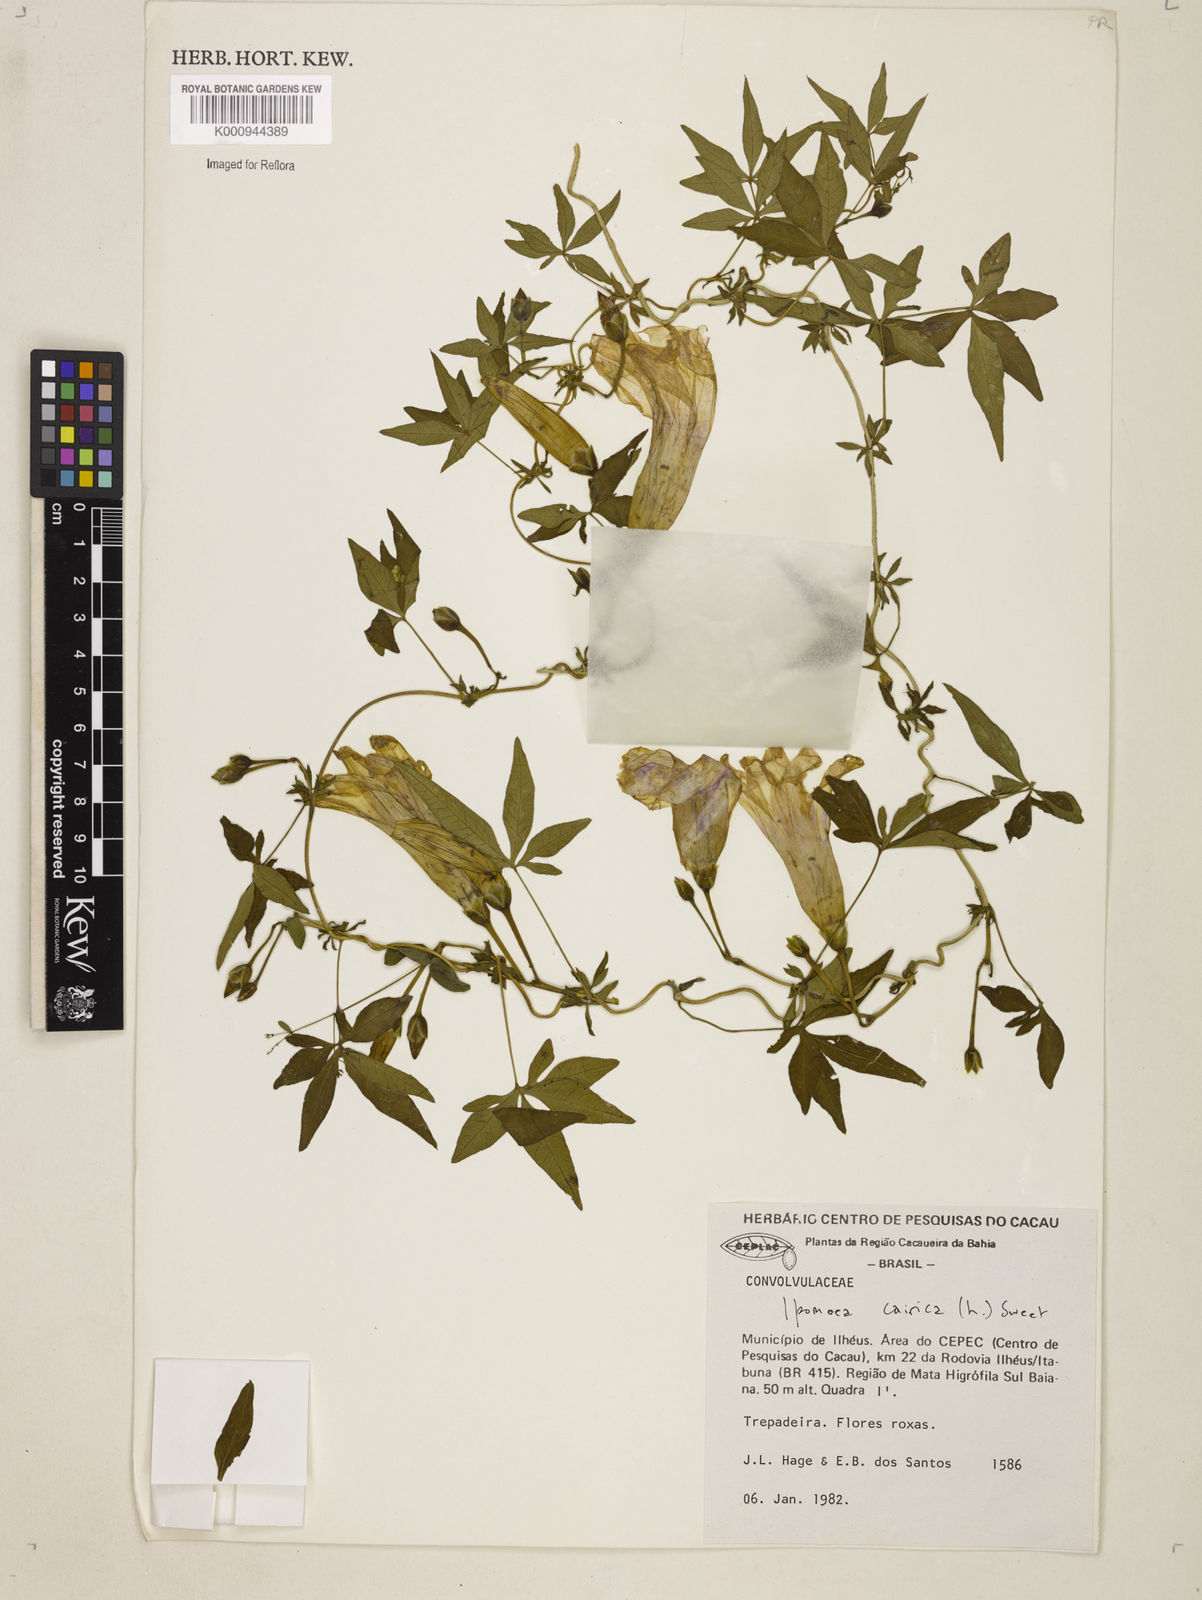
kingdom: Plantae
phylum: Tracheophyta
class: Magnoliopsida
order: Solanales
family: Convolvulaceae
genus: Ipomoea
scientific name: Ipomoea cairica
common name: Mile a minute vine
